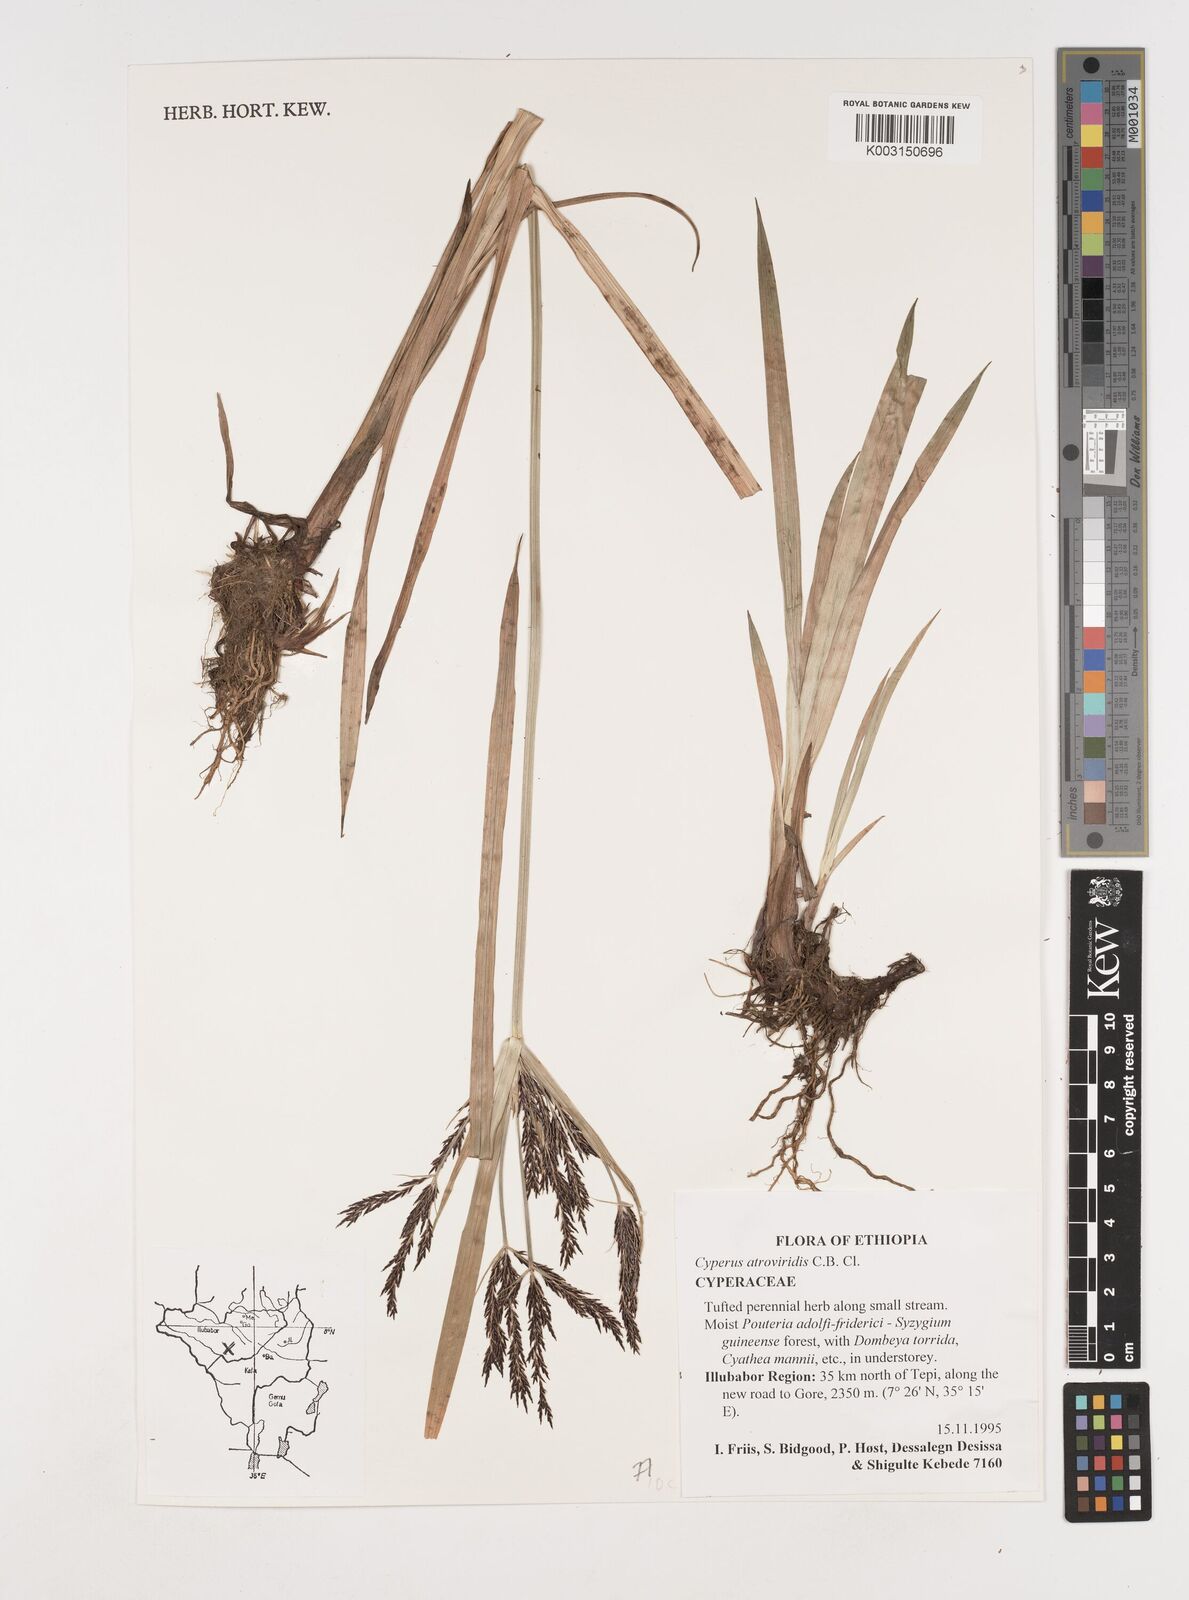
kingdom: Plantae
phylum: Tracheophyta
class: Liliopsida
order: Poales
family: Cyperaceae
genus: Cyperus
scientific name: Cyperus aterrimus
